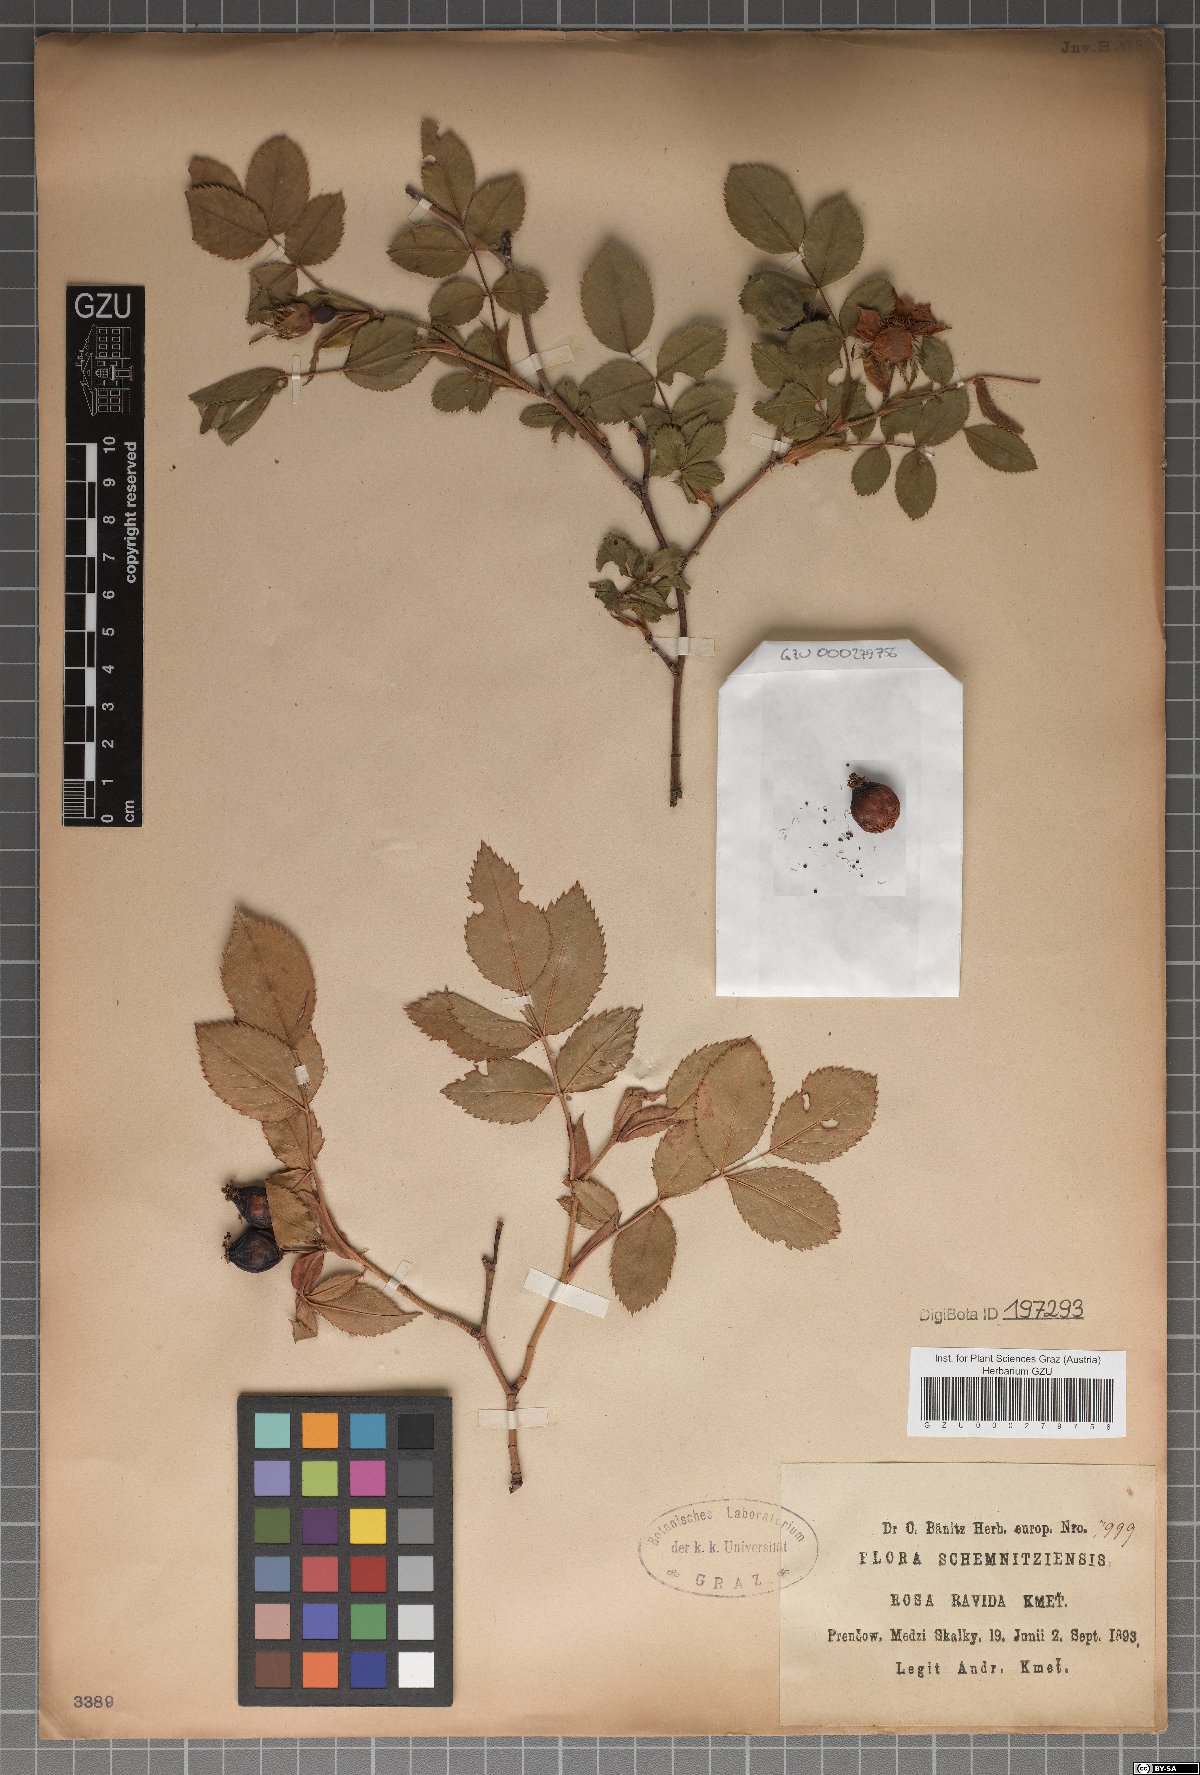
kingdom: Plantae
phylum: Tracheophyta
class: Magnoliopsida
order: Rosales
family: Rosaceae
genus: Rosa
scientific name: Rosa
